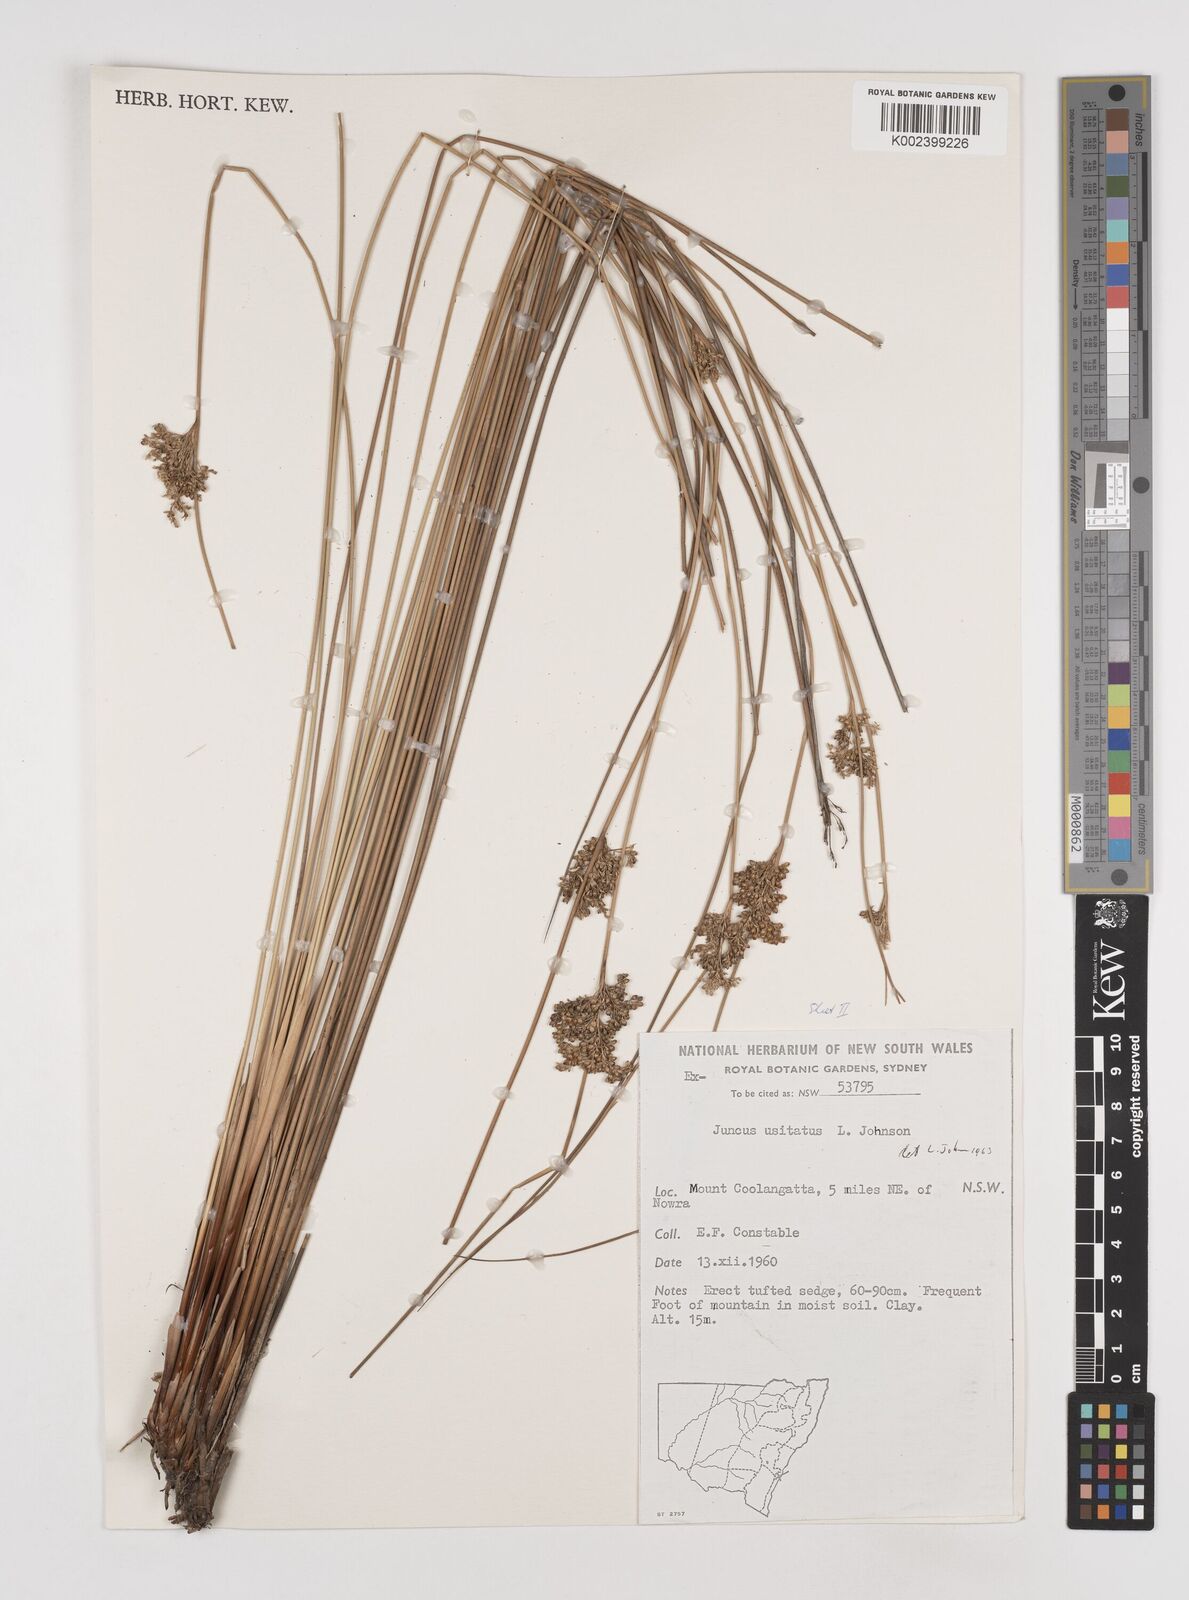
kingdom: Plantae
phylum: Tracheophyta
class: Liliopsida
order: Poales
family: Juncaceae
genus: Juncus
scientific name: Juncus usitatus
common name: Rush
